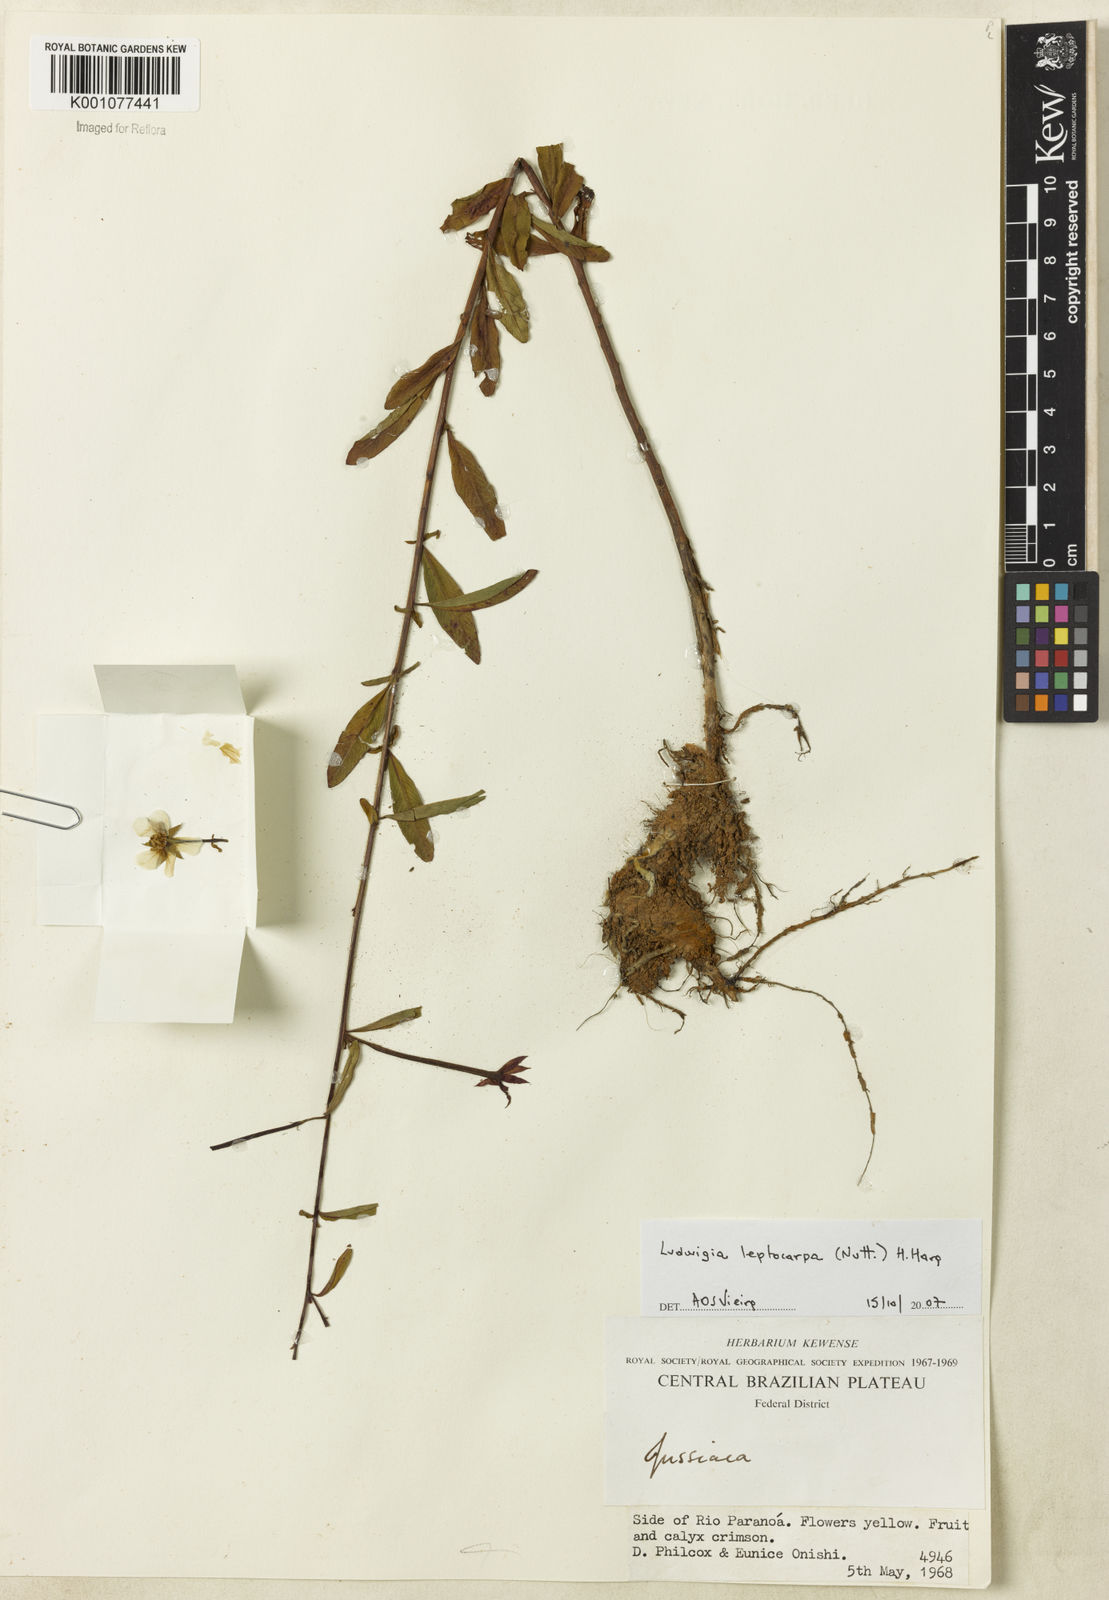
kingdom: Plantae
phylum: Tracheophyta
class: Magnoliopsida
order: Myrtales
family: Onagraceae
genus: Ludwigia
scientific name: Ludwigia leptocarpa
